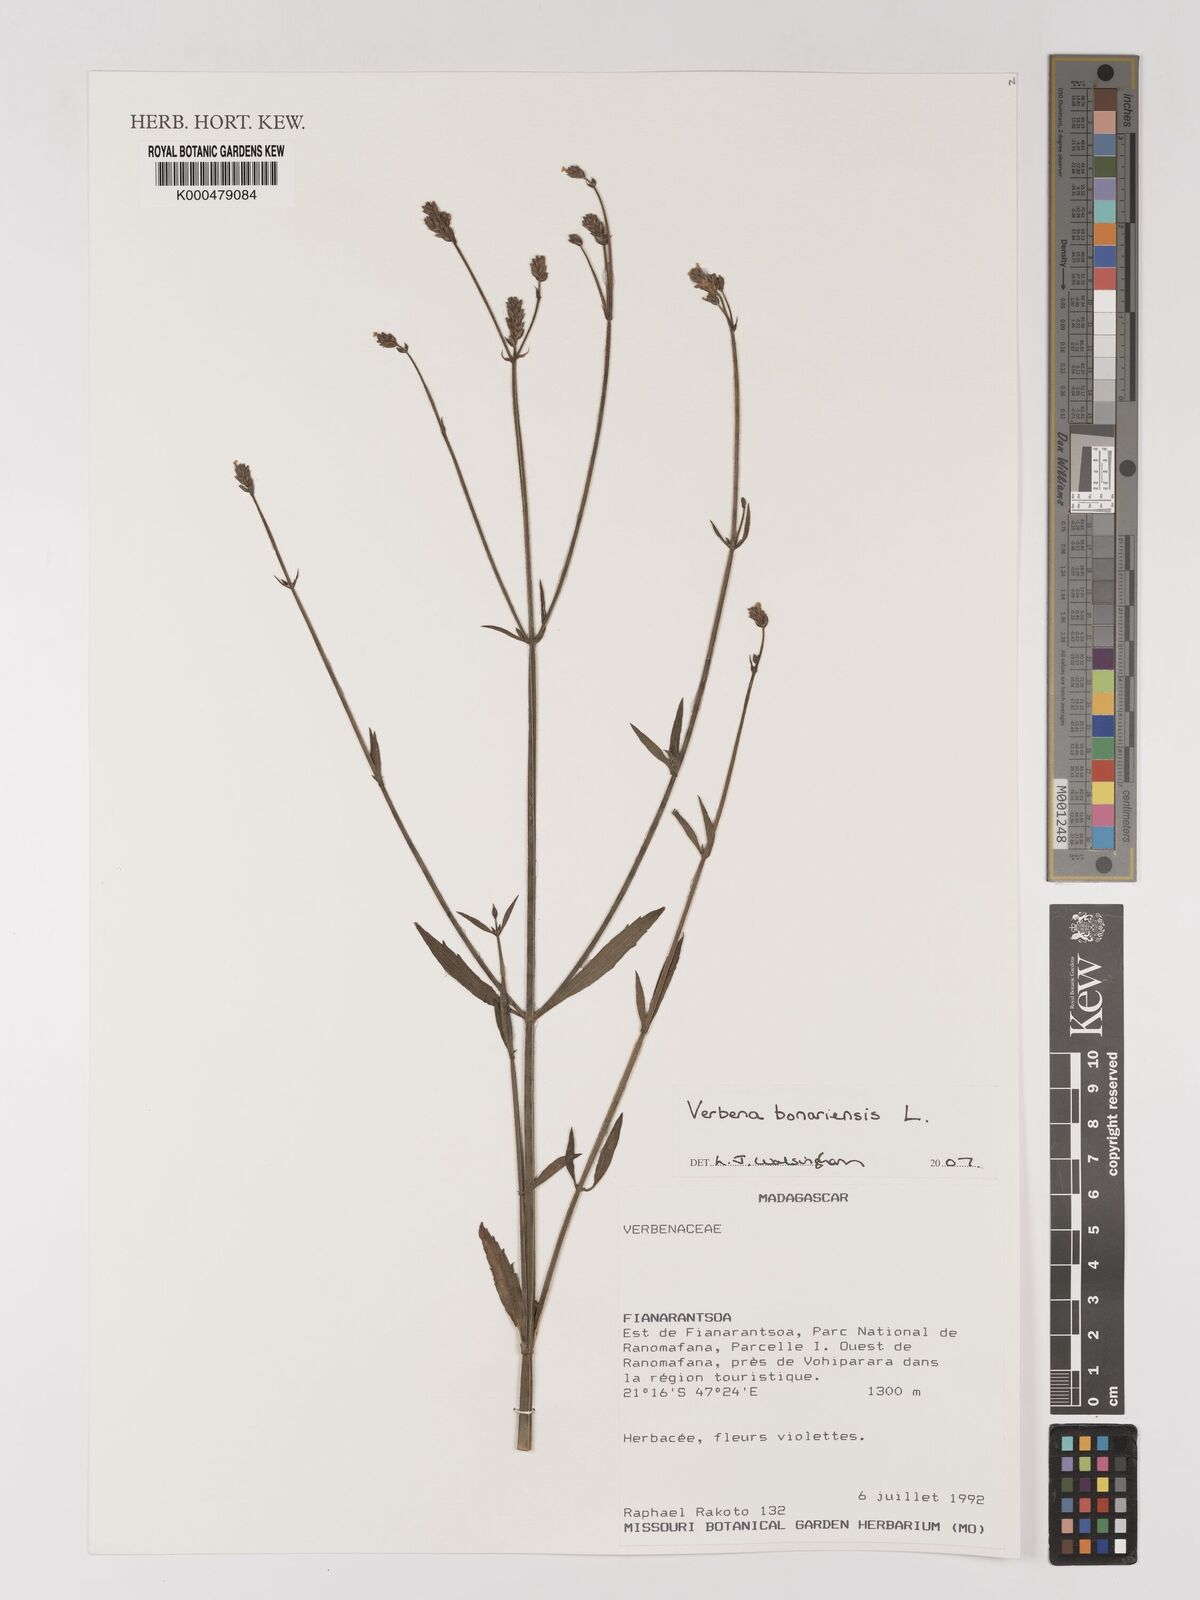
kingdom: Plantae
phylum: Tracheophyta
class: Magnoliopsida
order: Lamiales
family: Verbenaceae
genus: Verbena
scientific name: Verbena bonariensis
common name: Purpletop vervain
